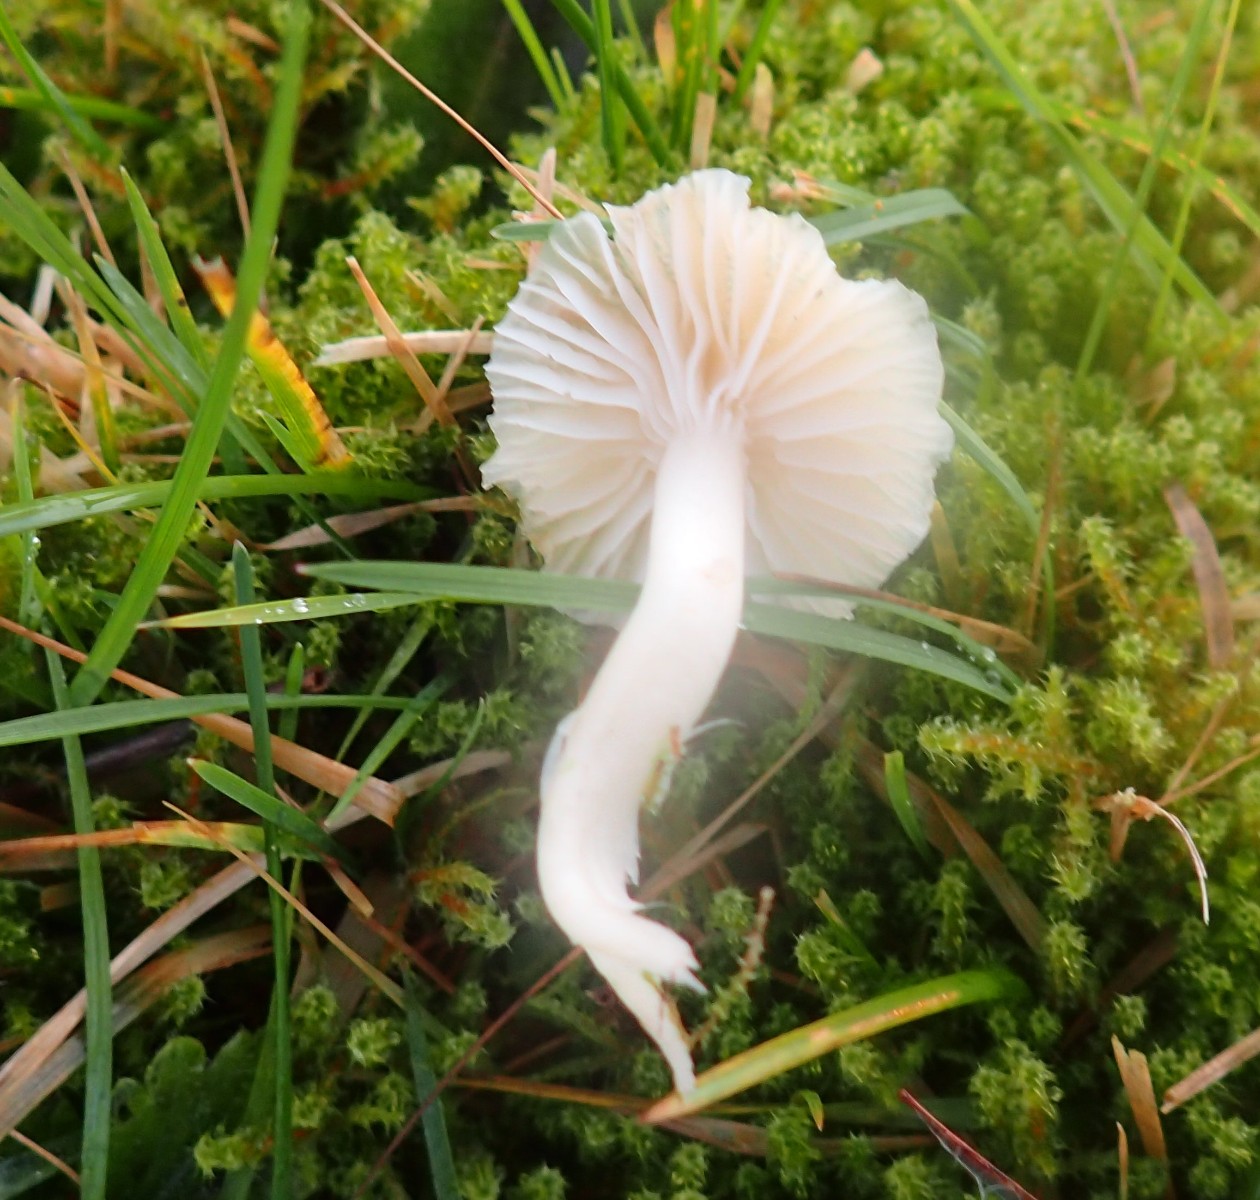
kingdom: Fungi
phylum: Basidiomycota
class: Agaricomycetes
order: Agaricales
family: Hygrophoraceae
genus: Cuphophyllus
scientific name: Cuphophyllus virgineus
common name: snehvid vokshat
